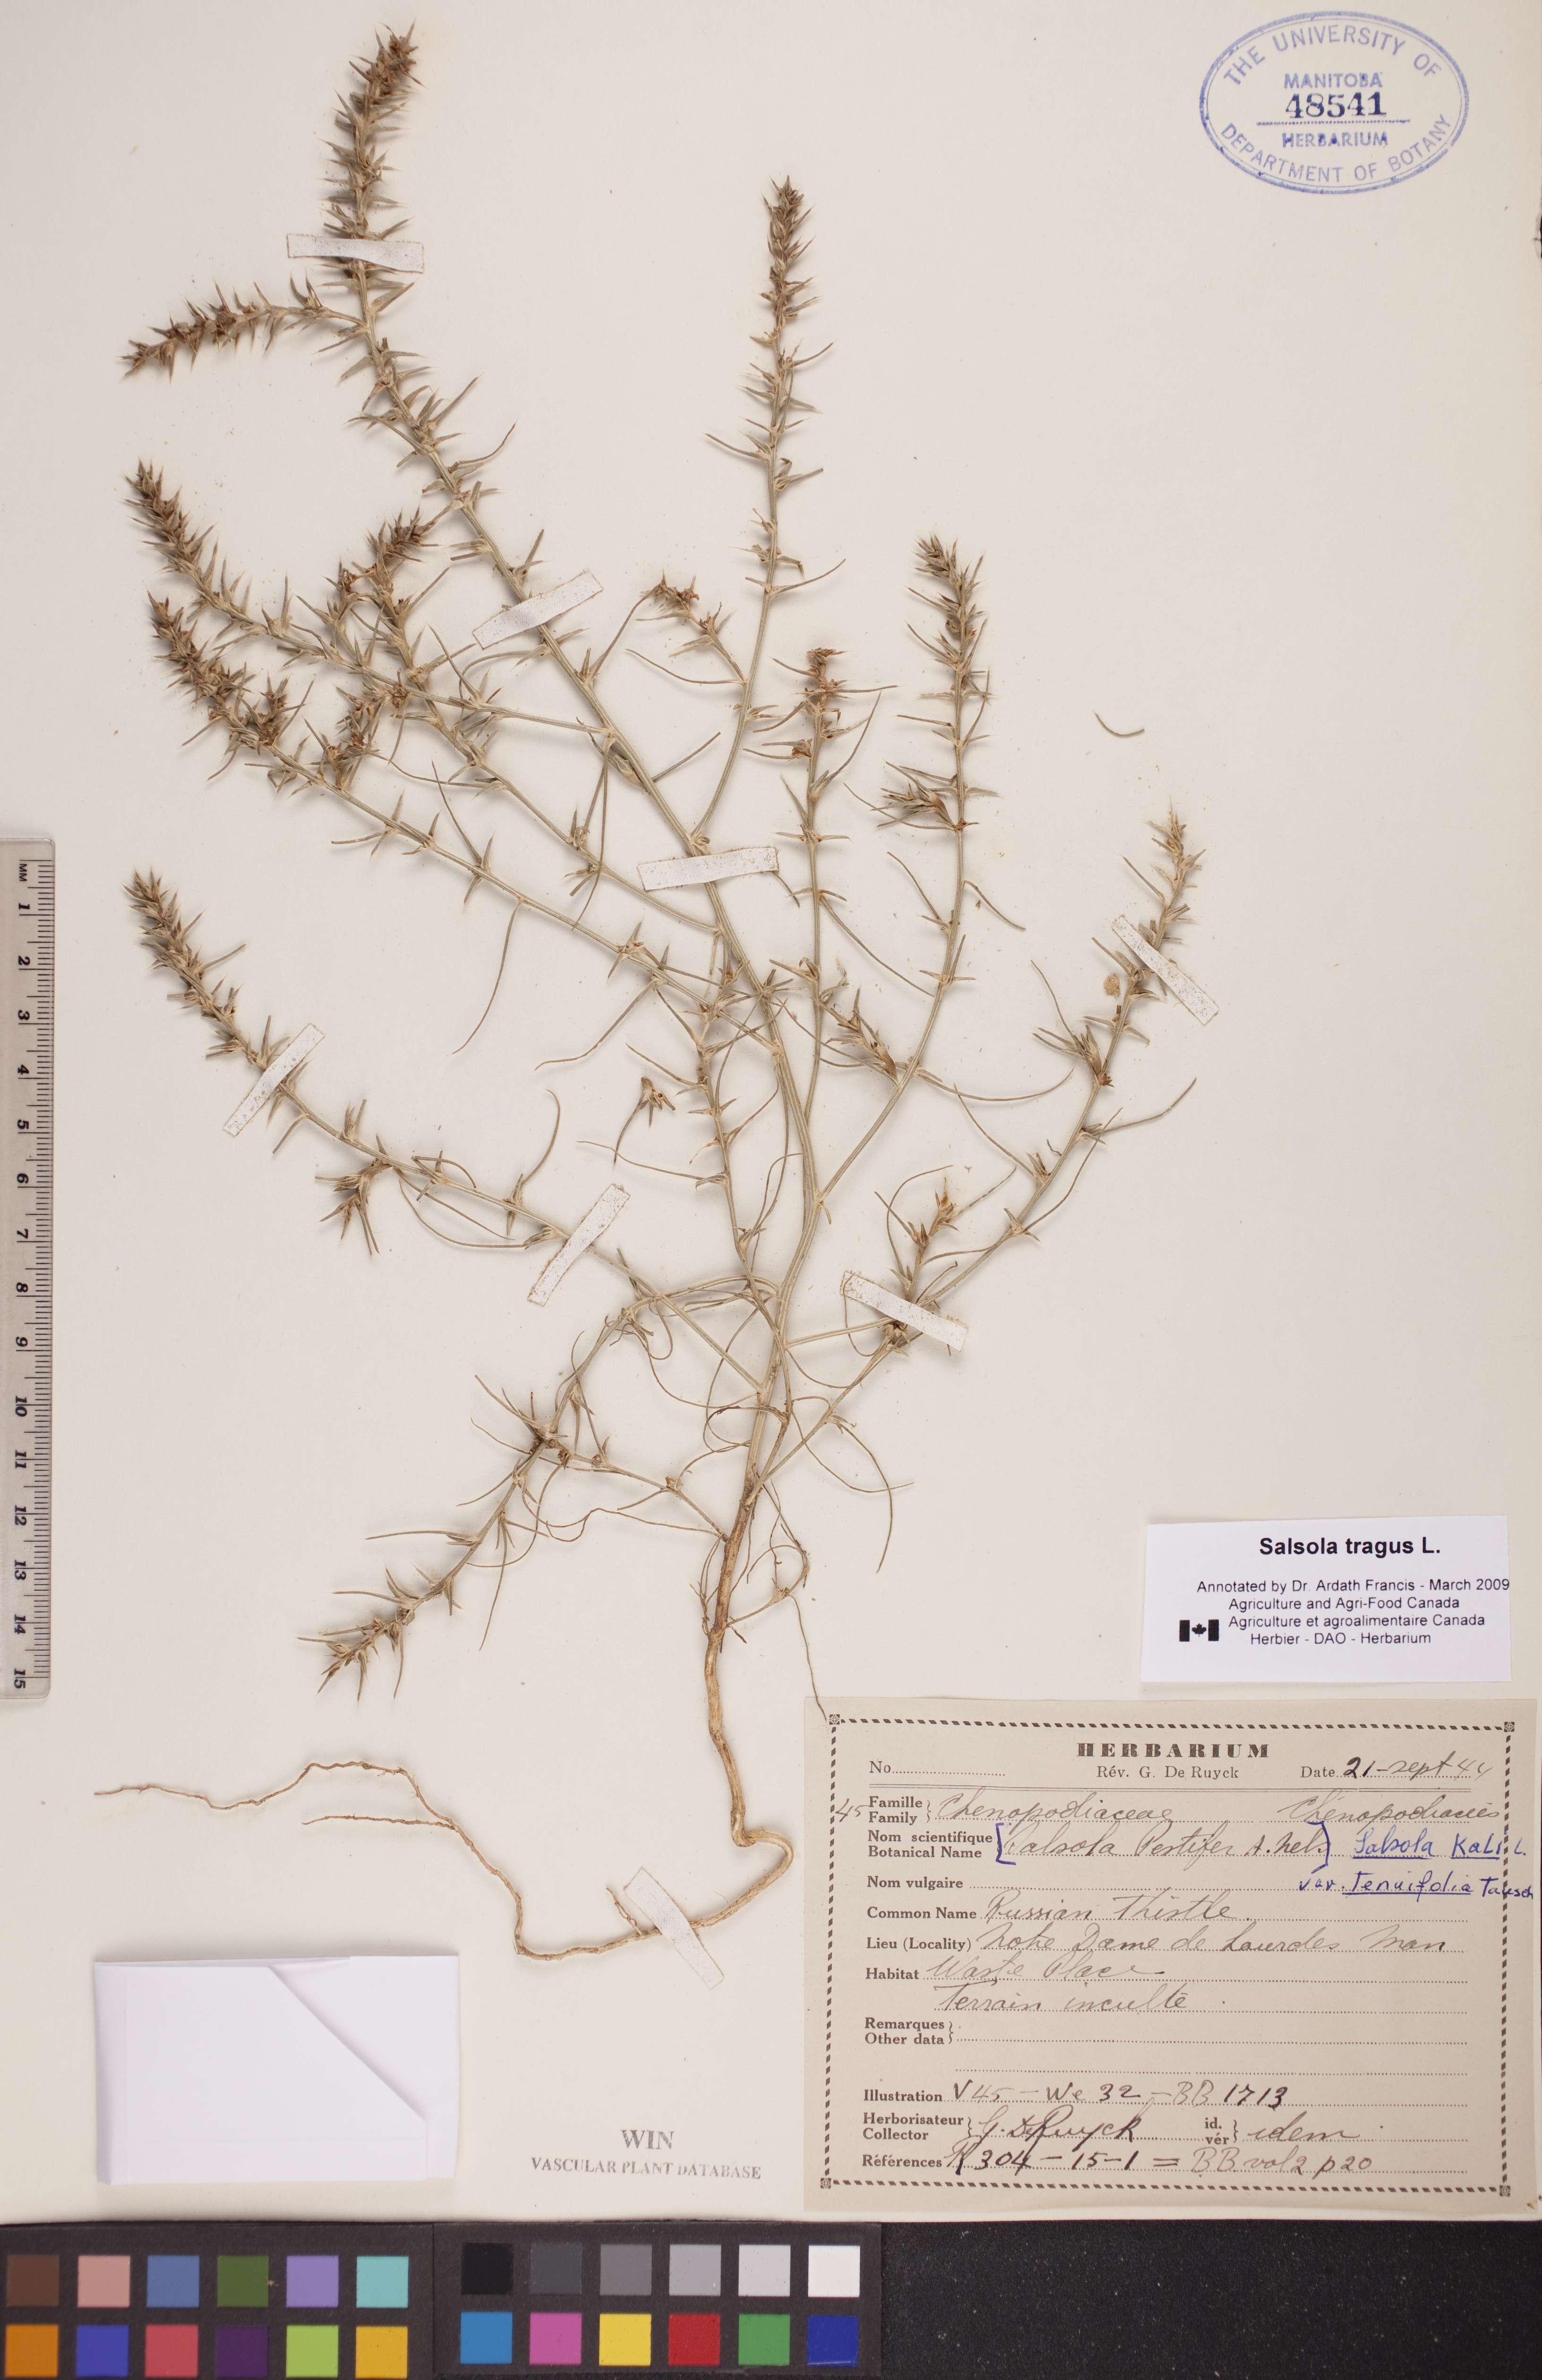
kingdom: Plantae
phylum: Tracheophyta
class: Magnoliopsida
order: Caryophyllales
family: Amaranthaceae
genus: Salsola
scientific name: Salsola tragus
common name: Prickly russian thistle
